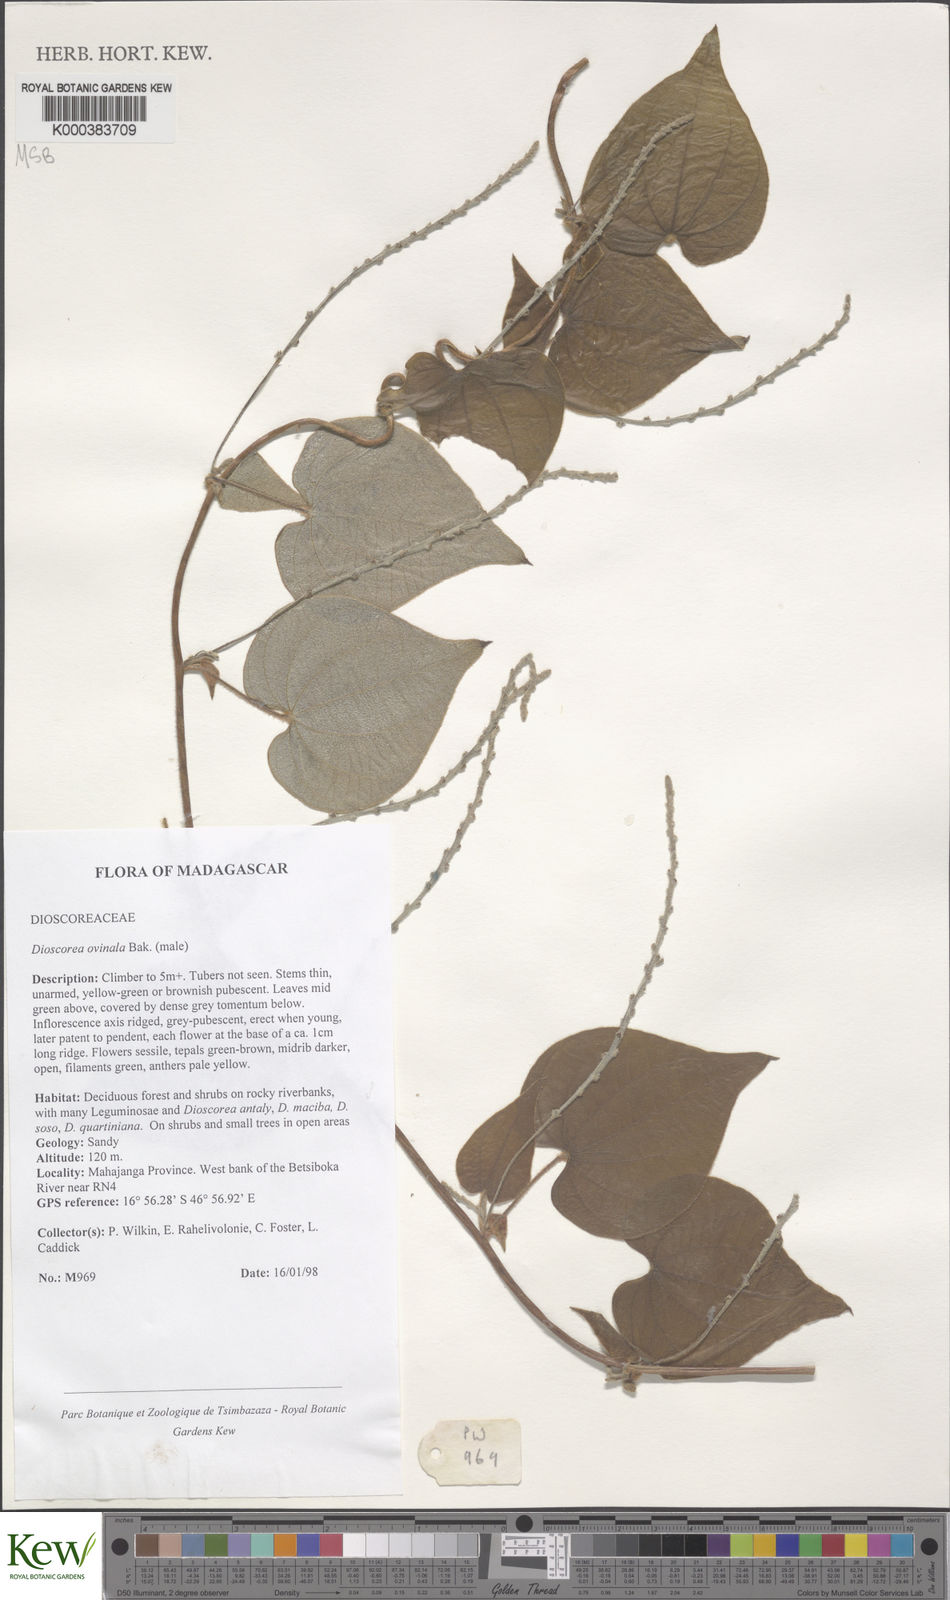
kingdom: Plantae
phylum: Tracheophyta
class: Liliopsida
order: Dioscoreales
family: Dioscoreaceae
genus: Dioscorea
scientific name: Dioscorea ovinala
